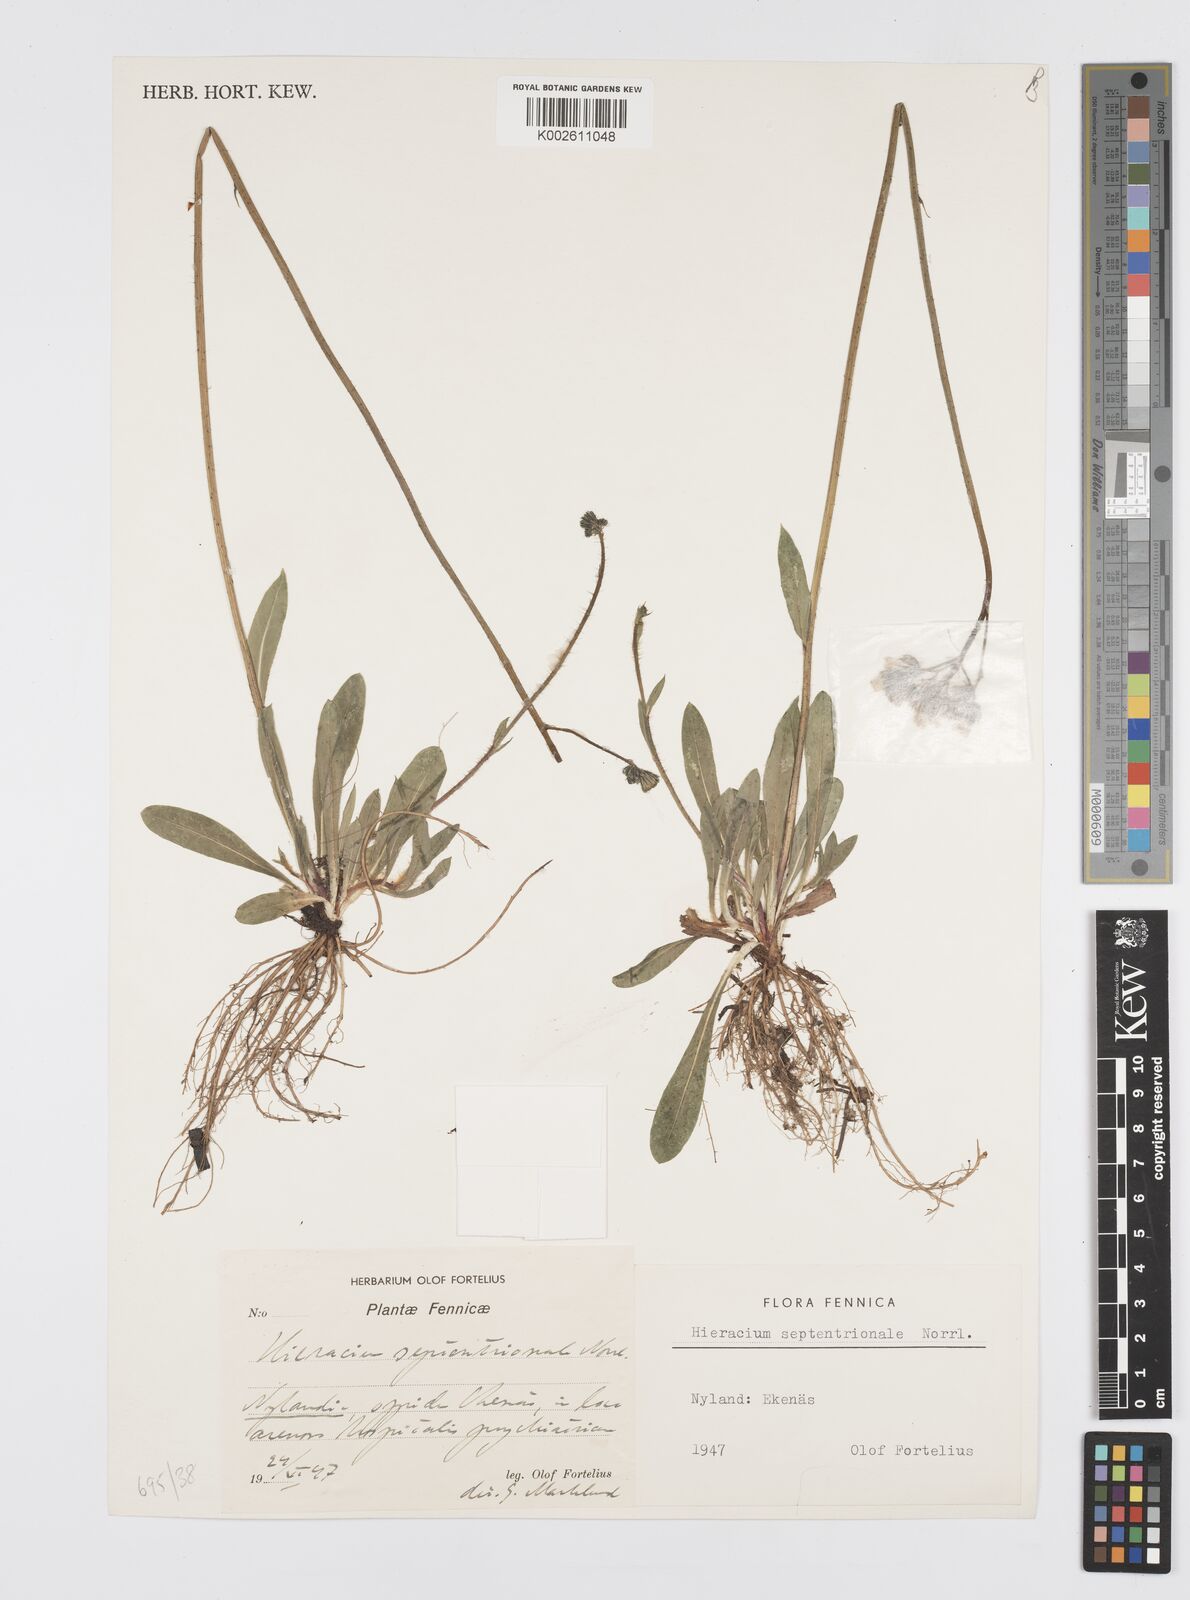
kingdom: Plantae
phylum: Tracheophyta
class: Magnoliopsida
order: Asterales
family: Asteraceae
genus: Pilosella
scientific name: Pilosella piloselloides
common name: Glaucous king-devil
